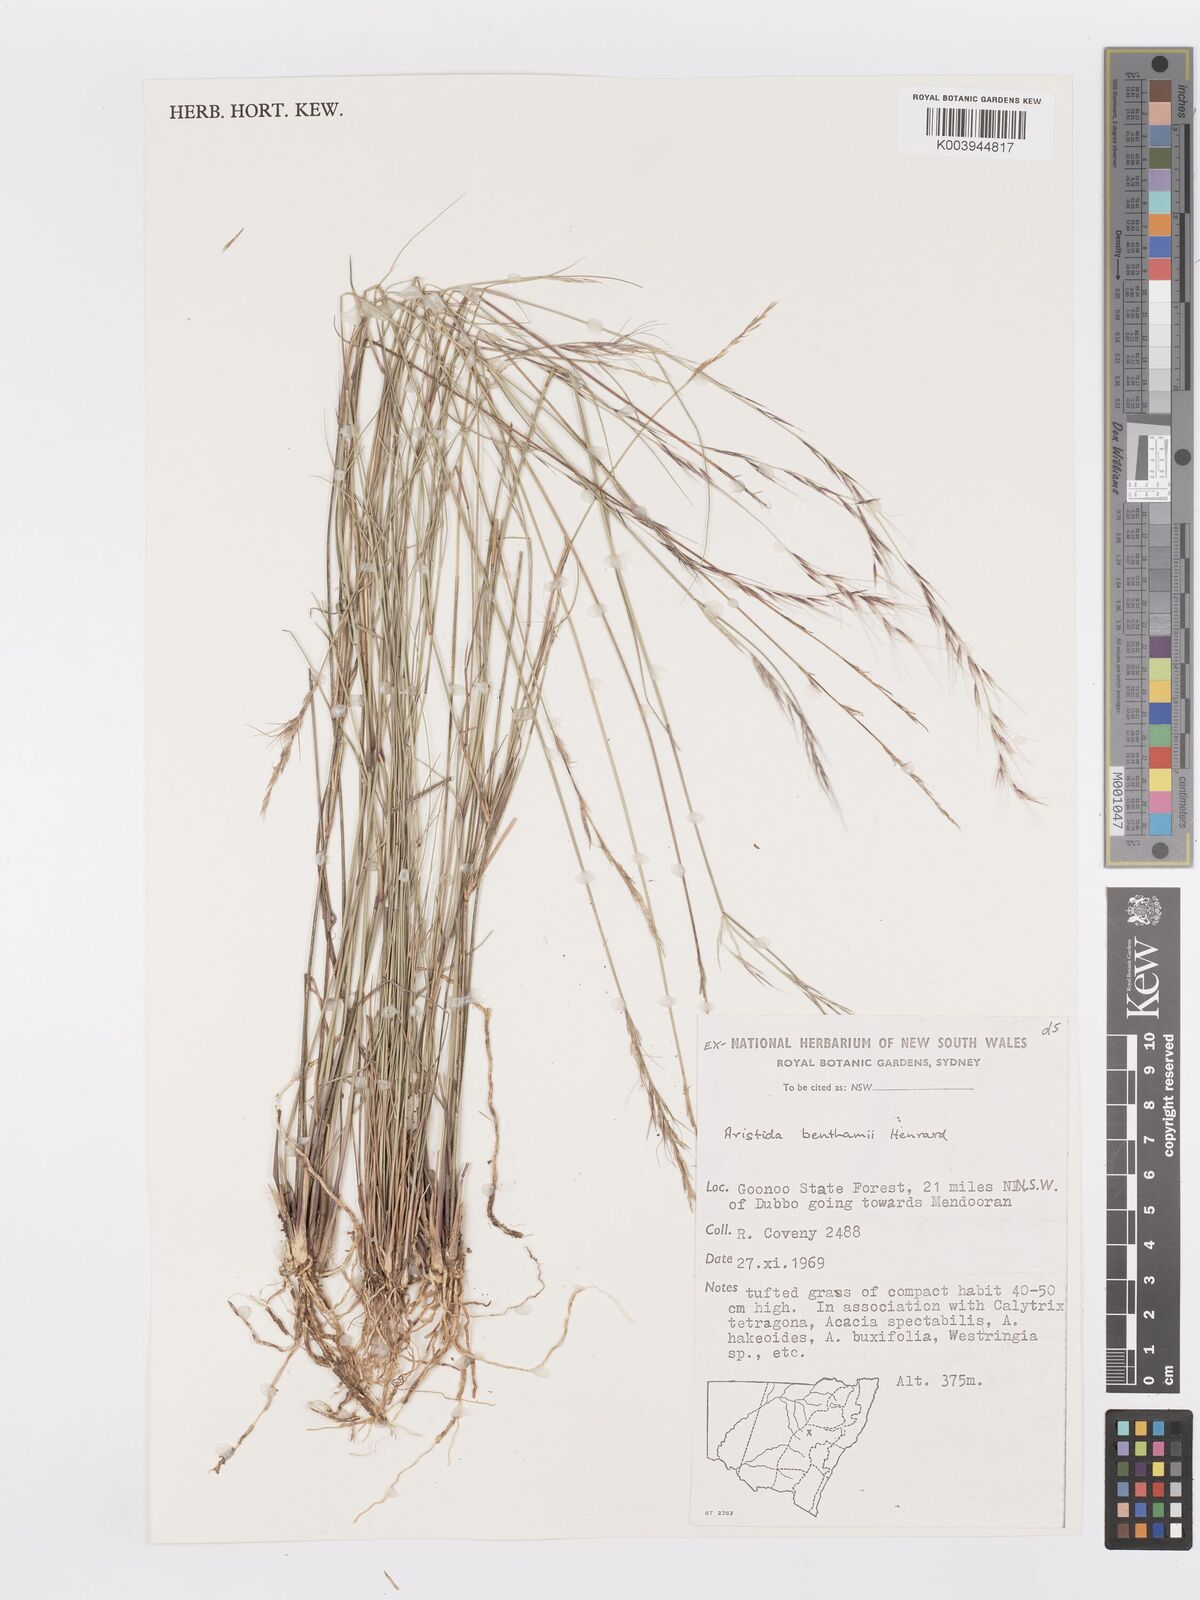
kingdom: Plantae
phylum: Tracheophyta
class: Liliopsida
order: Poales
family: Poaceae
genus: Aristida
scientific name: Aristida benthamii
